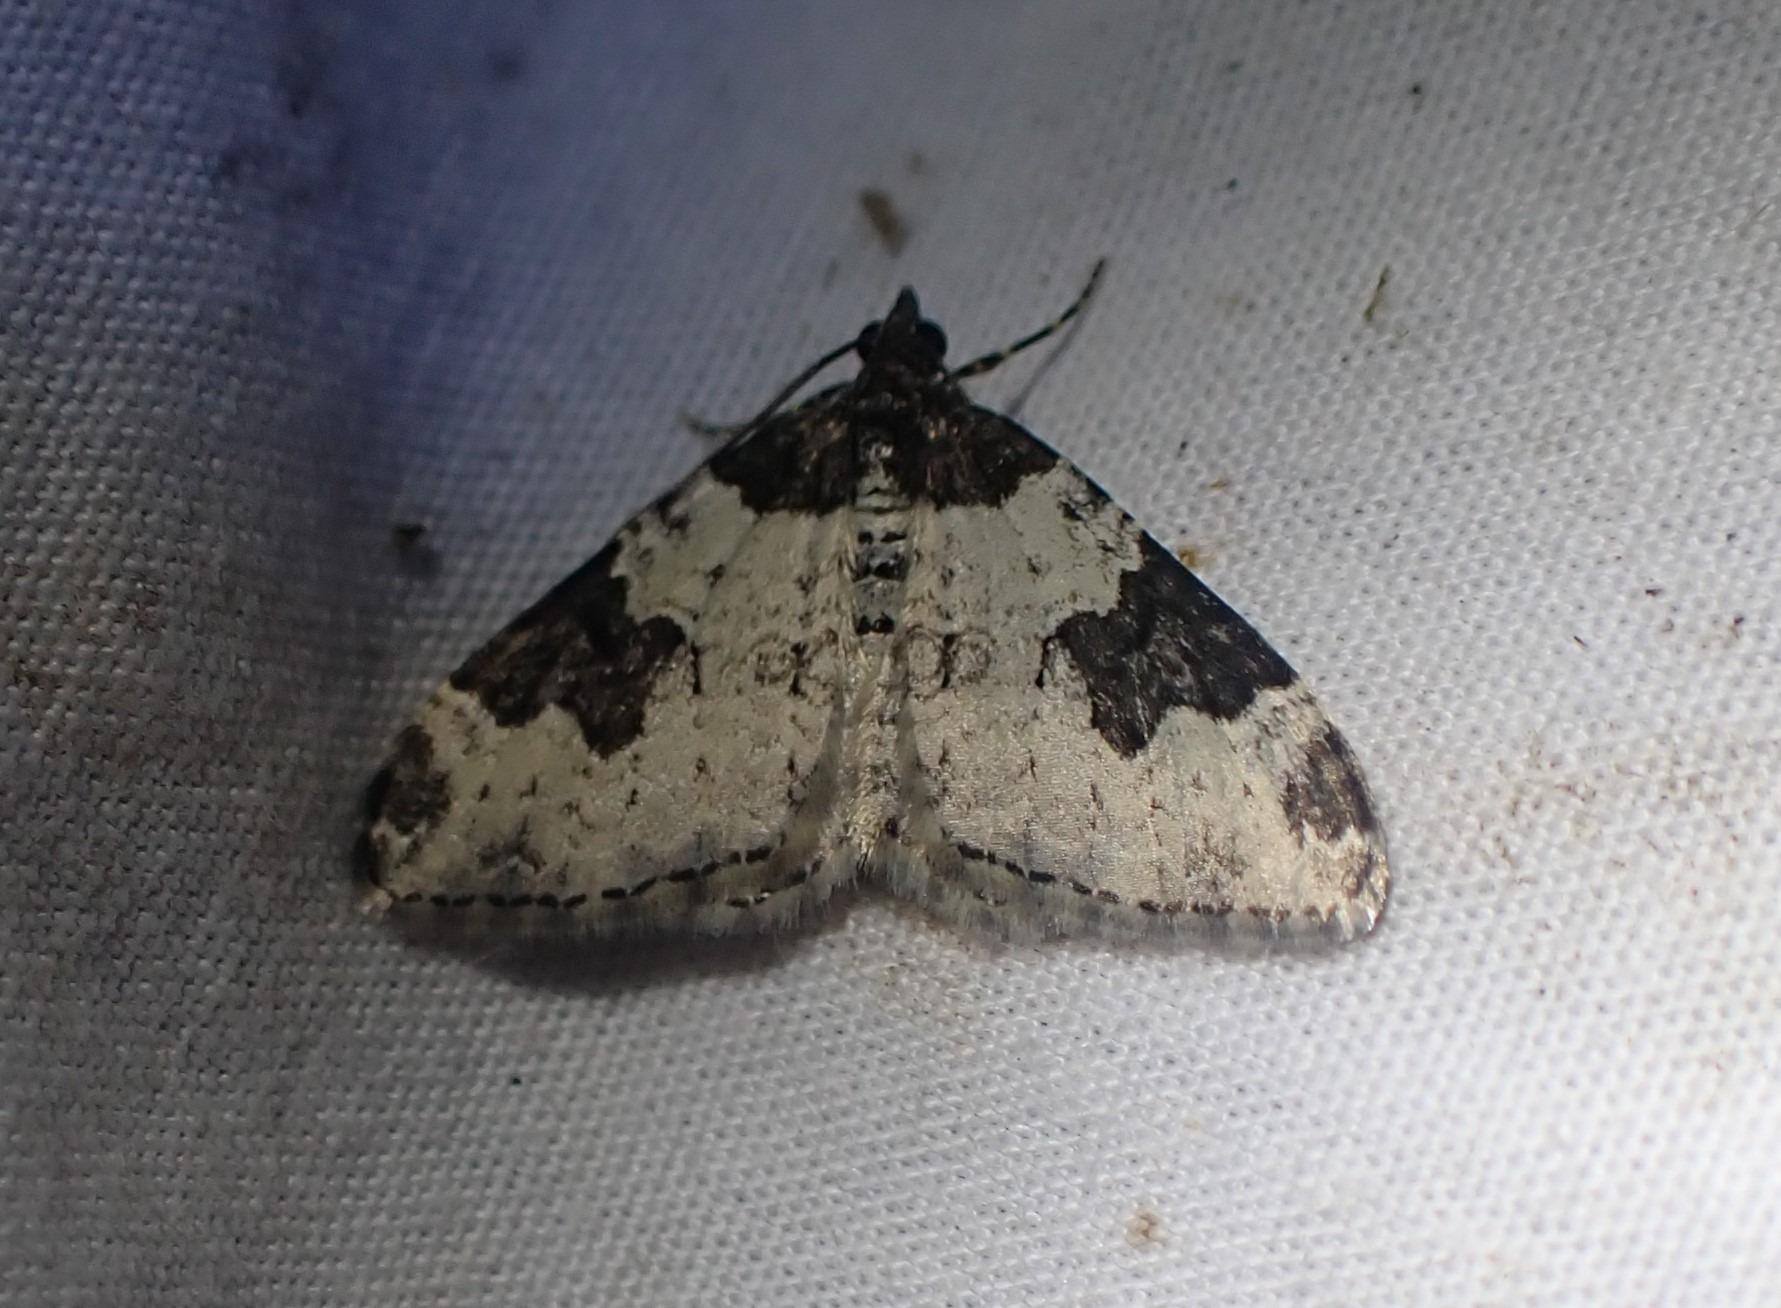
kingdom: Animalia
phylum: Arthropoda
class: Insecta
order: Lepidoptera
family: Geometridae
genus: Xanthorhoe
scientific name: Xanthorhoe fluctuata
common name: Sortbæltet bladmåler
